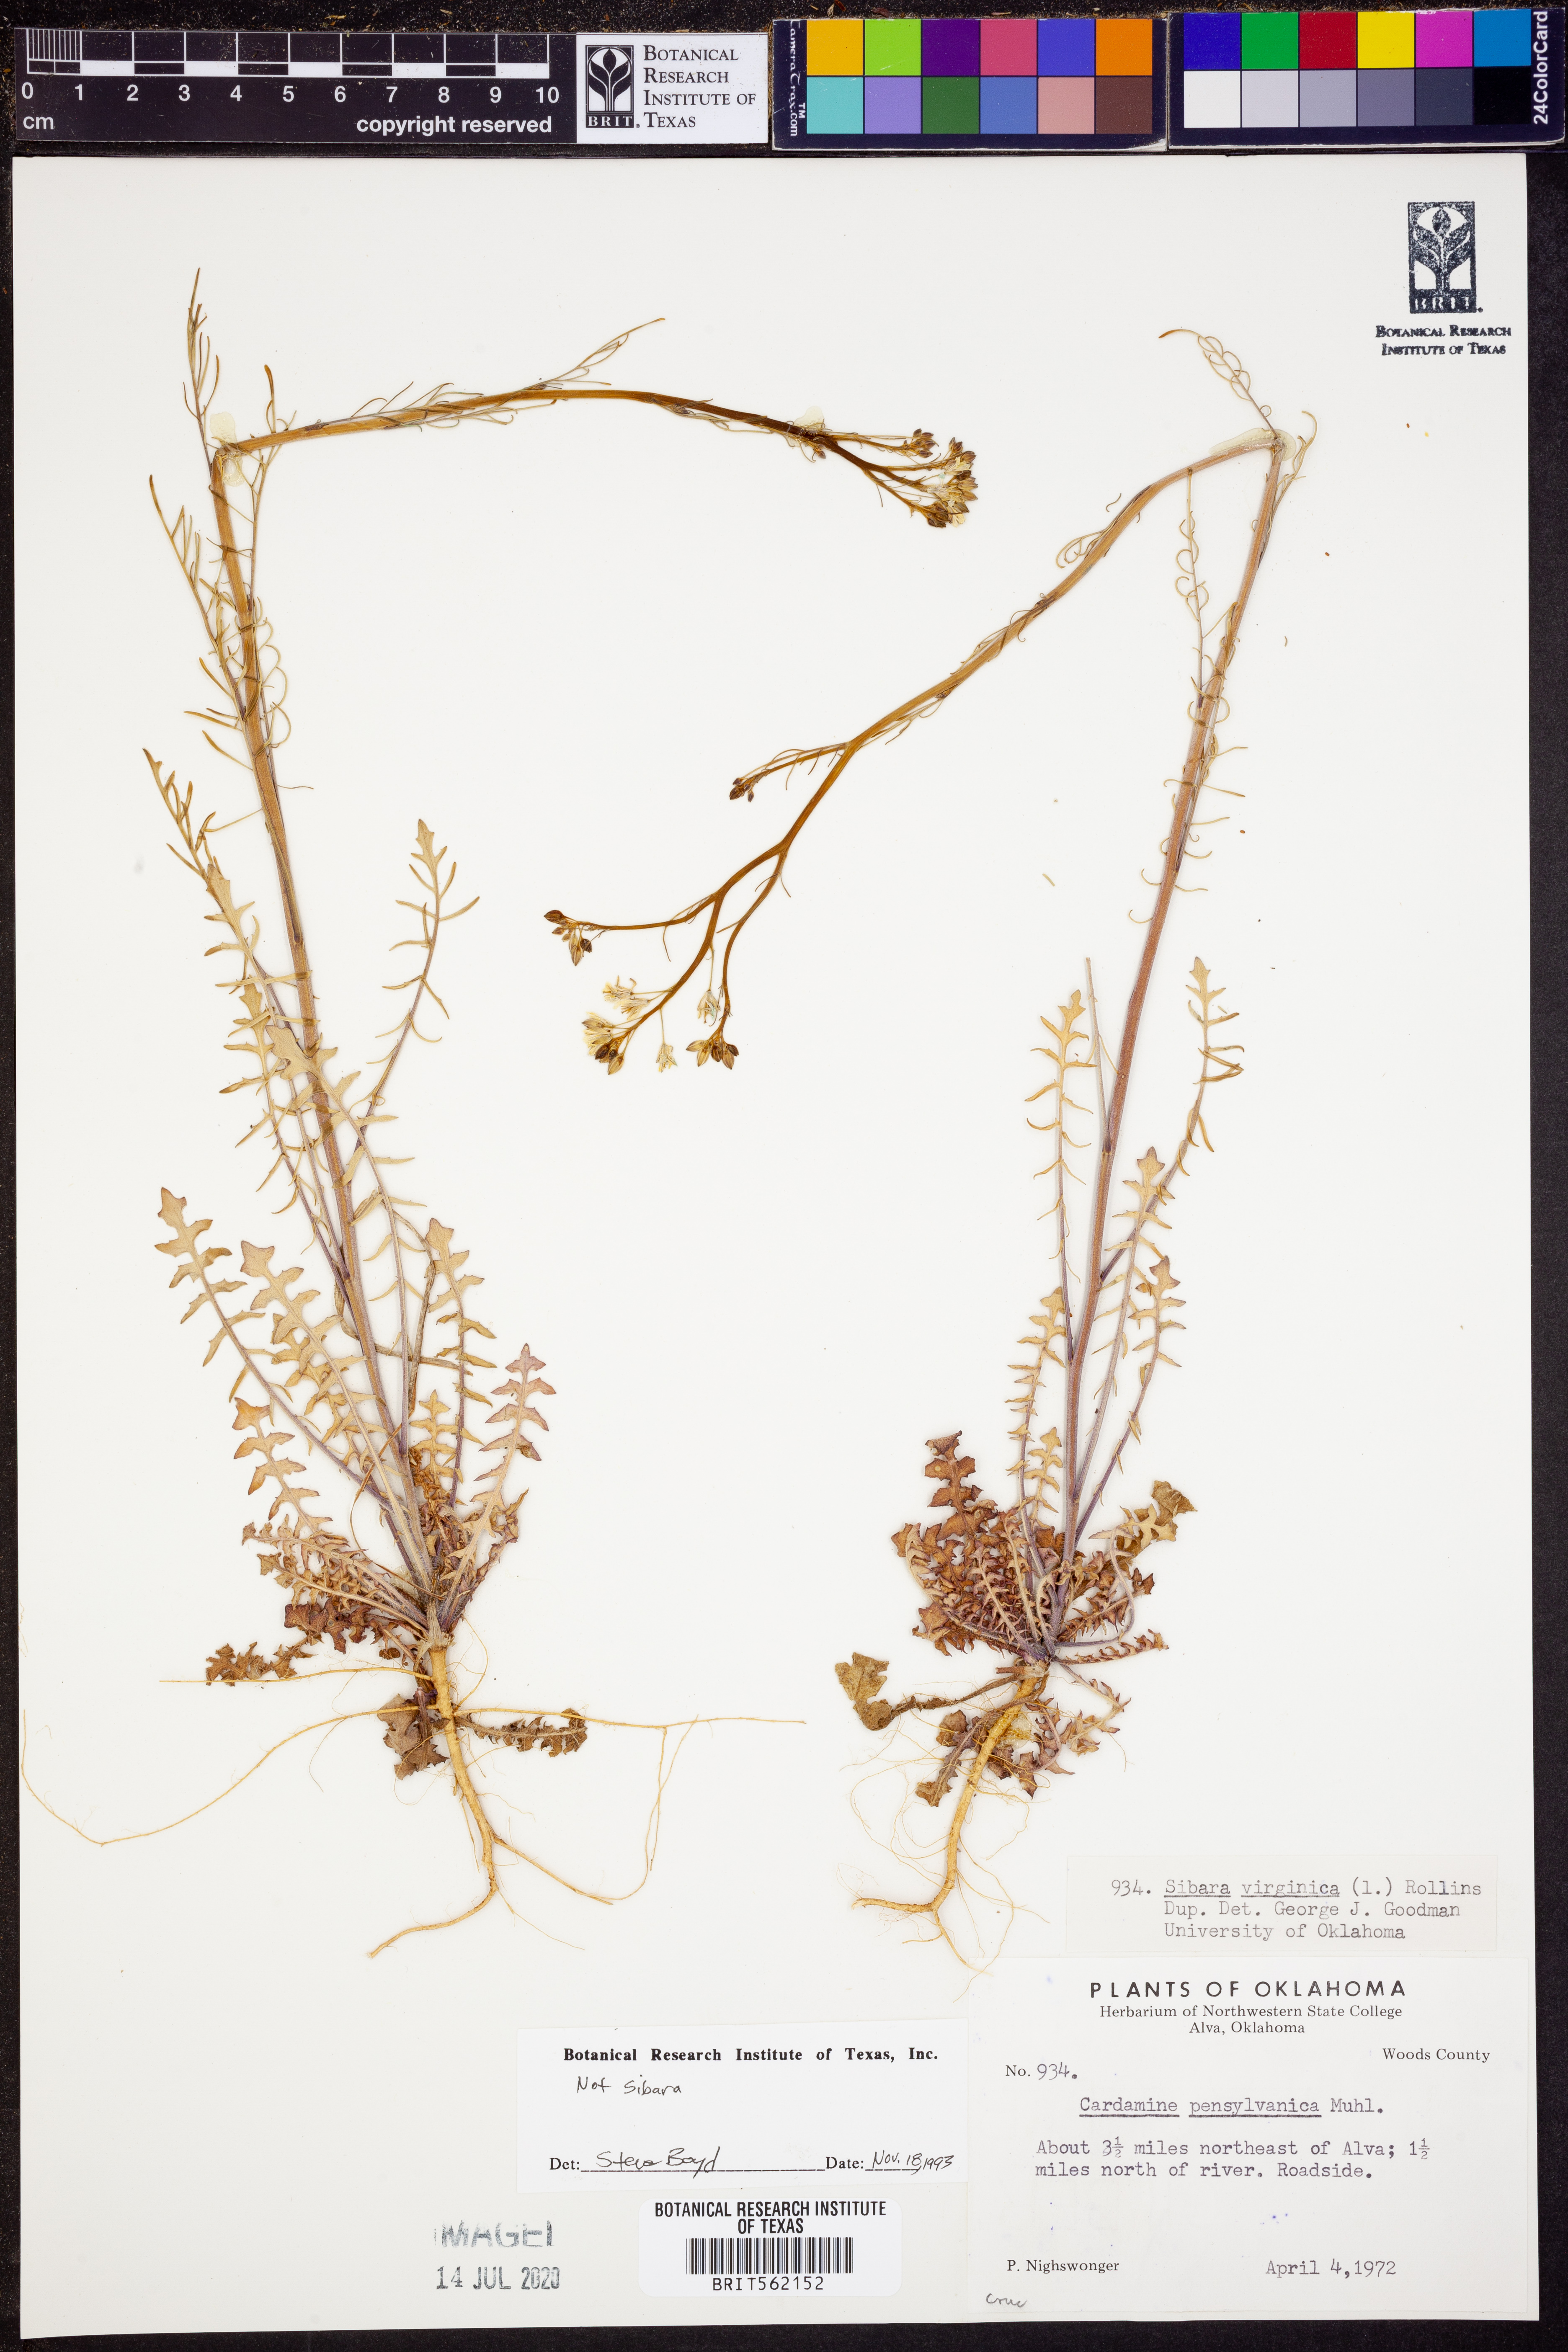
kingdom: Plantae
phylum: Tracheophyta
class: Magnoliopsida
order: Brassicales
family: Brassicaceae
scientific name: Brassicaceae
